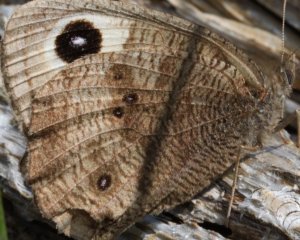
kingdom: Animalia
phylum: Arthropoda
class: Insecta
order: Lepidoptera
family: Nymphalidae
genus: Cercyonis
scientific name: Cercyonis pegala
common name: Common Wood-Nymph
